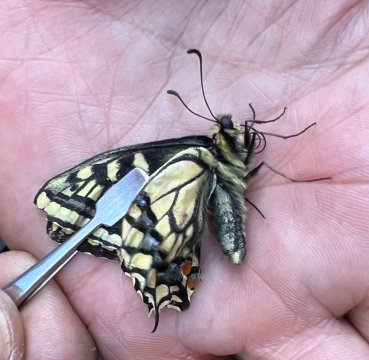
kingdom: Animalia
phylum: Arthropoda
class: Insecta
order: Lepidoptera
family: Papilionidae
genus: Papilio
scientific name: Papilio machaon
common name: Old World Swallowtail
